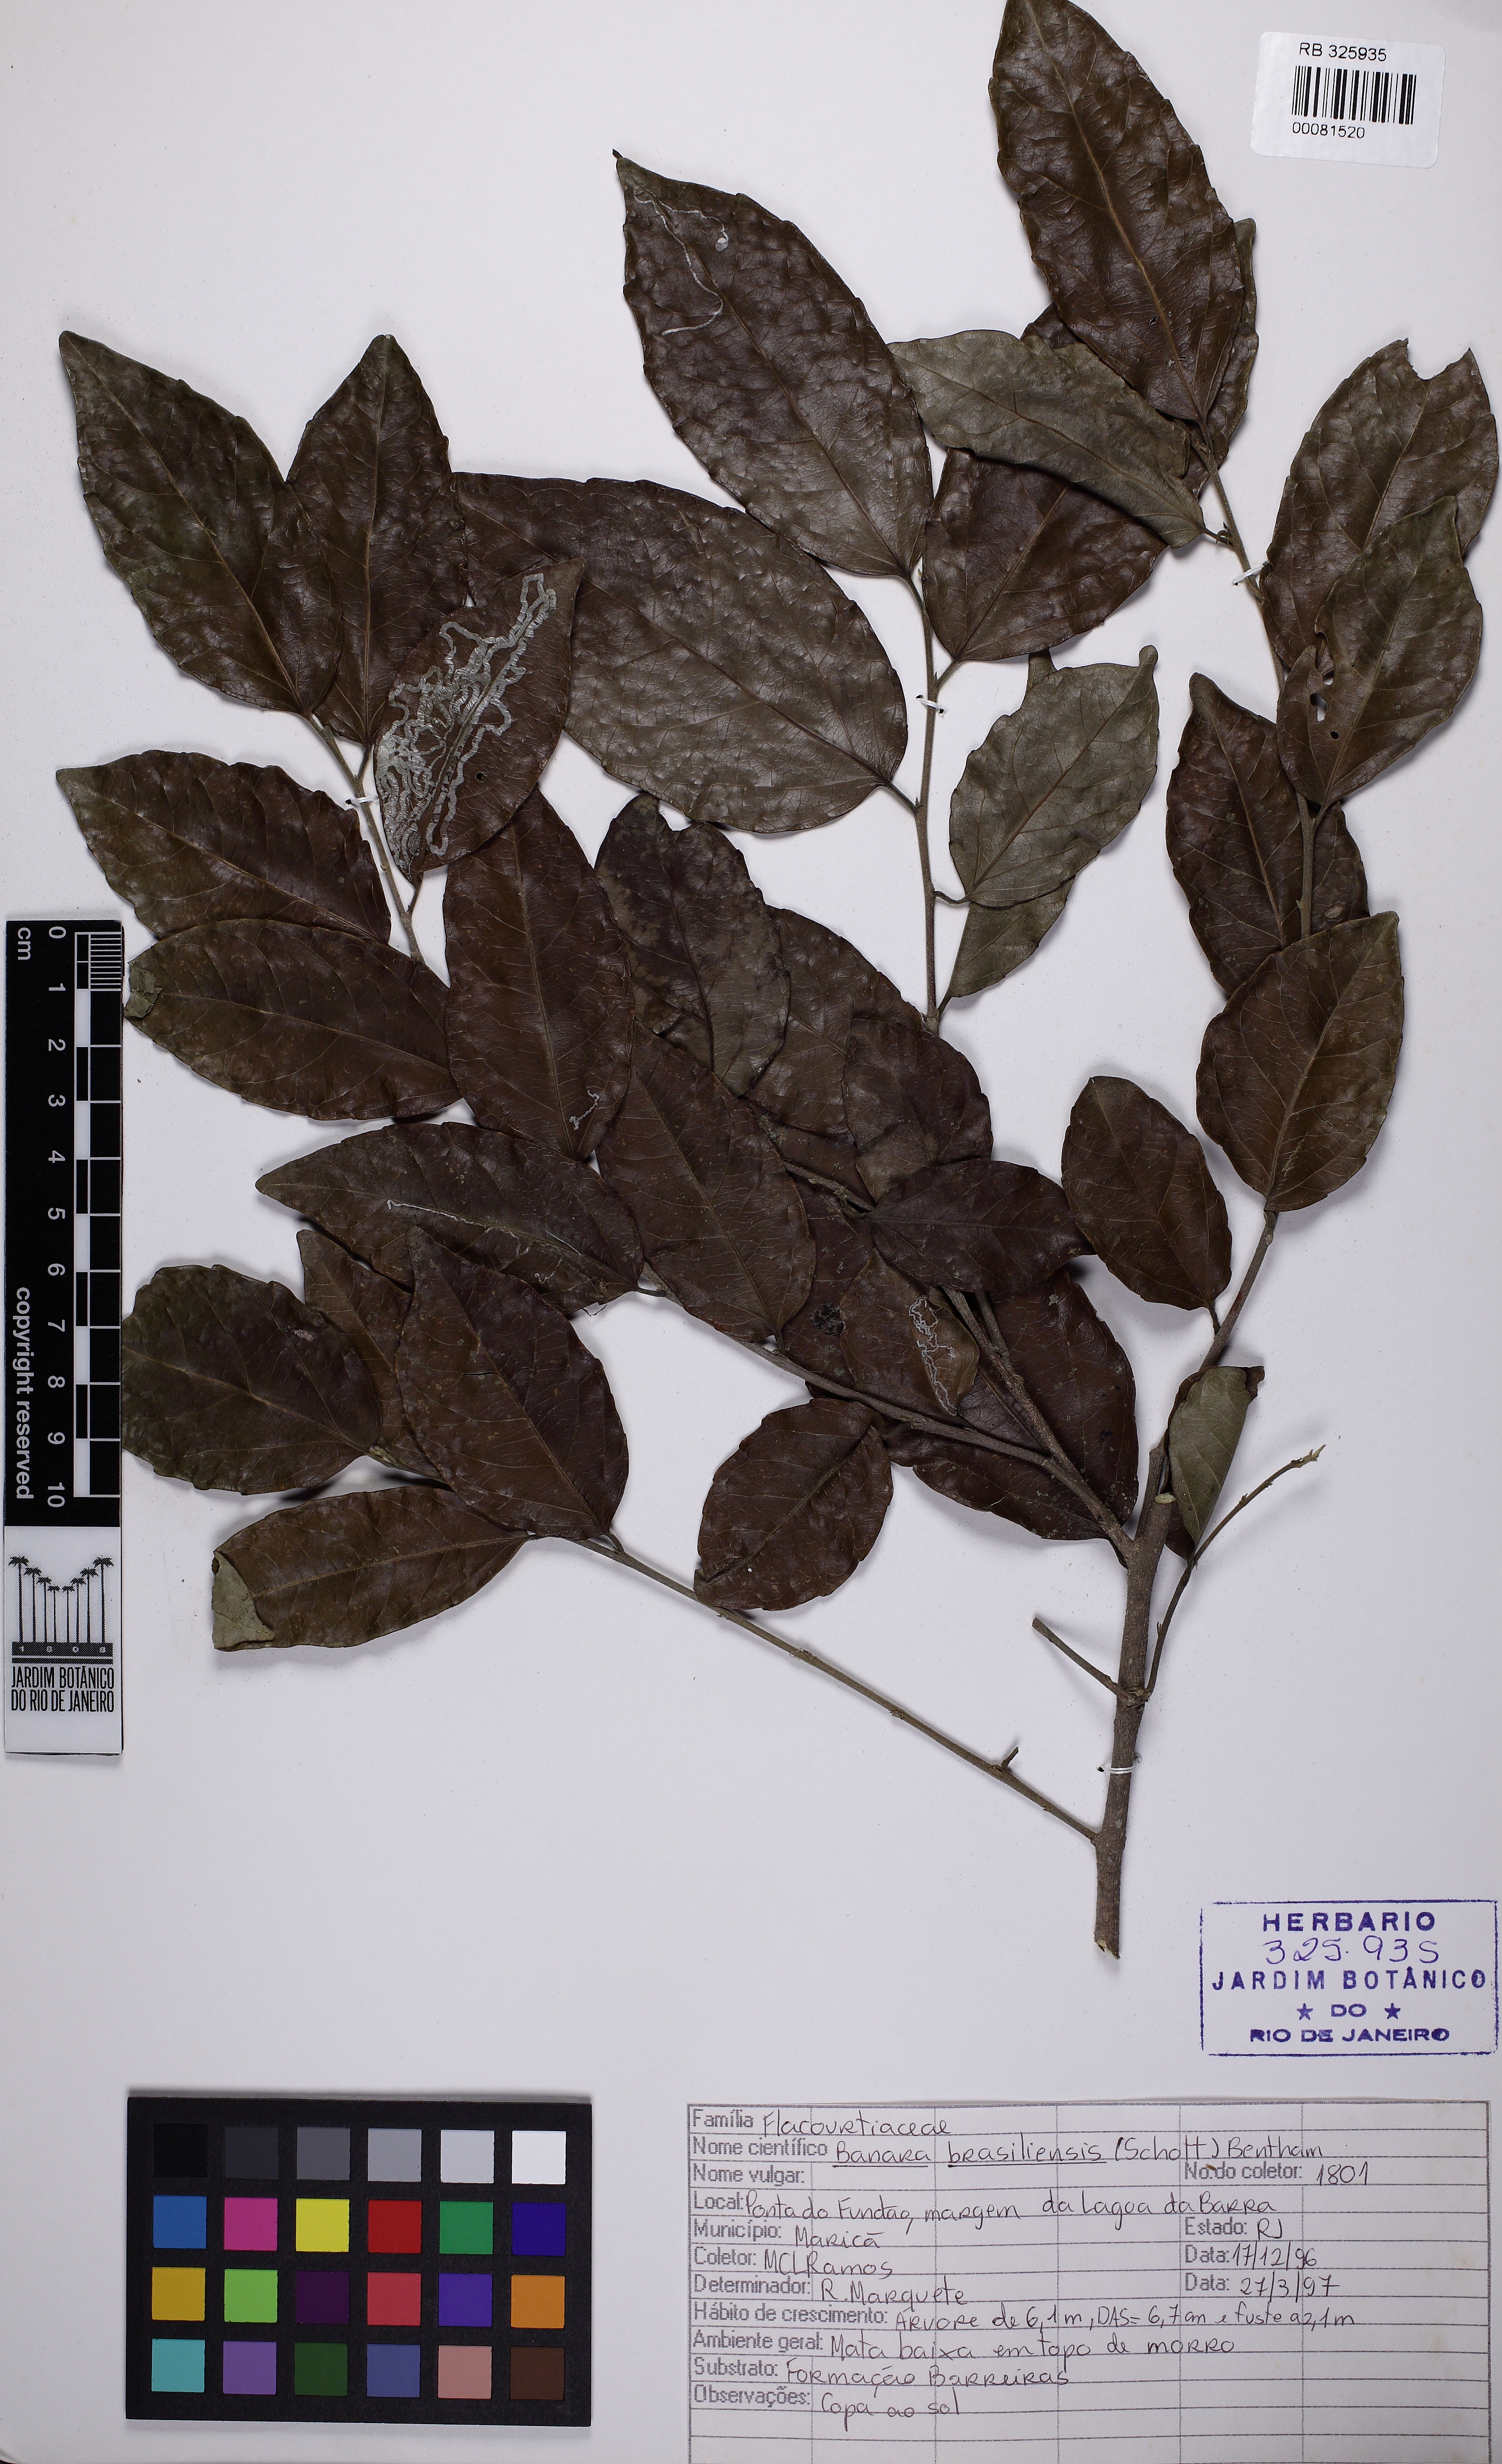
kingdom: Plantae
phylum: Tracheophyta
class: Magnoliopsida
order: Malpighiales
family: Salicaceae
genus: Banara
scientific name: Banara brasiliensis
